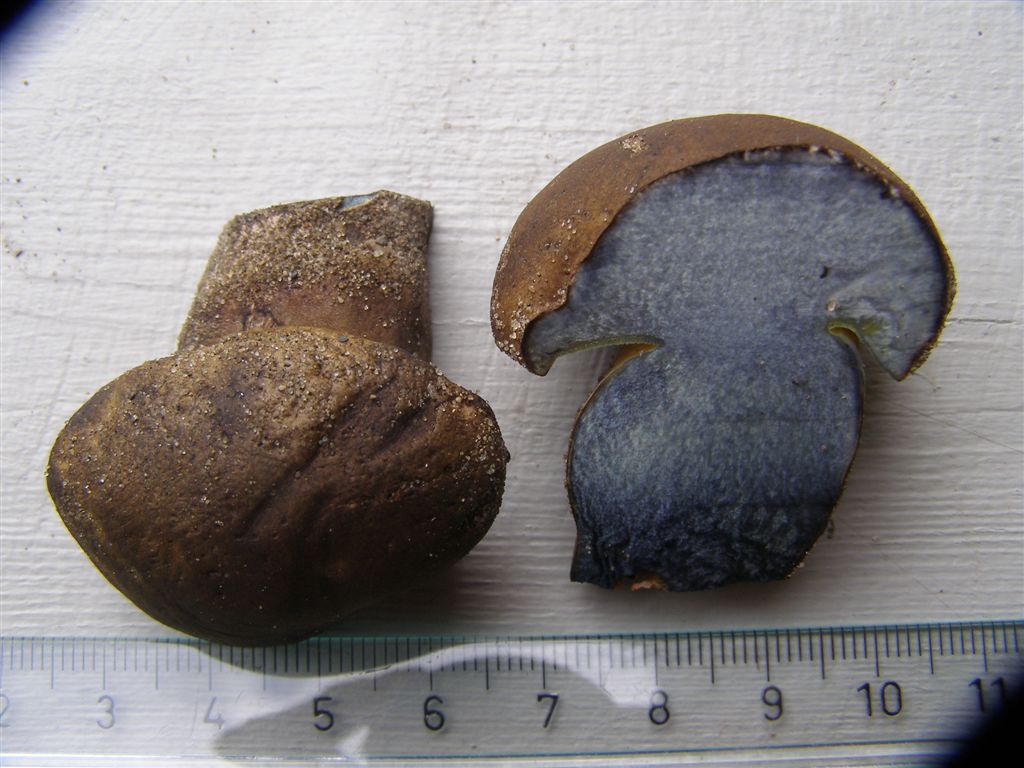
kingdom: Fungi
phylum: Basidiomycota
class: Agaricomycetes
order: Boletales
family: Boletaceae
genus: Cyanoboletus
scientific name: Cyanoboletus pulverulentus
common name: sortblånende rørhat
